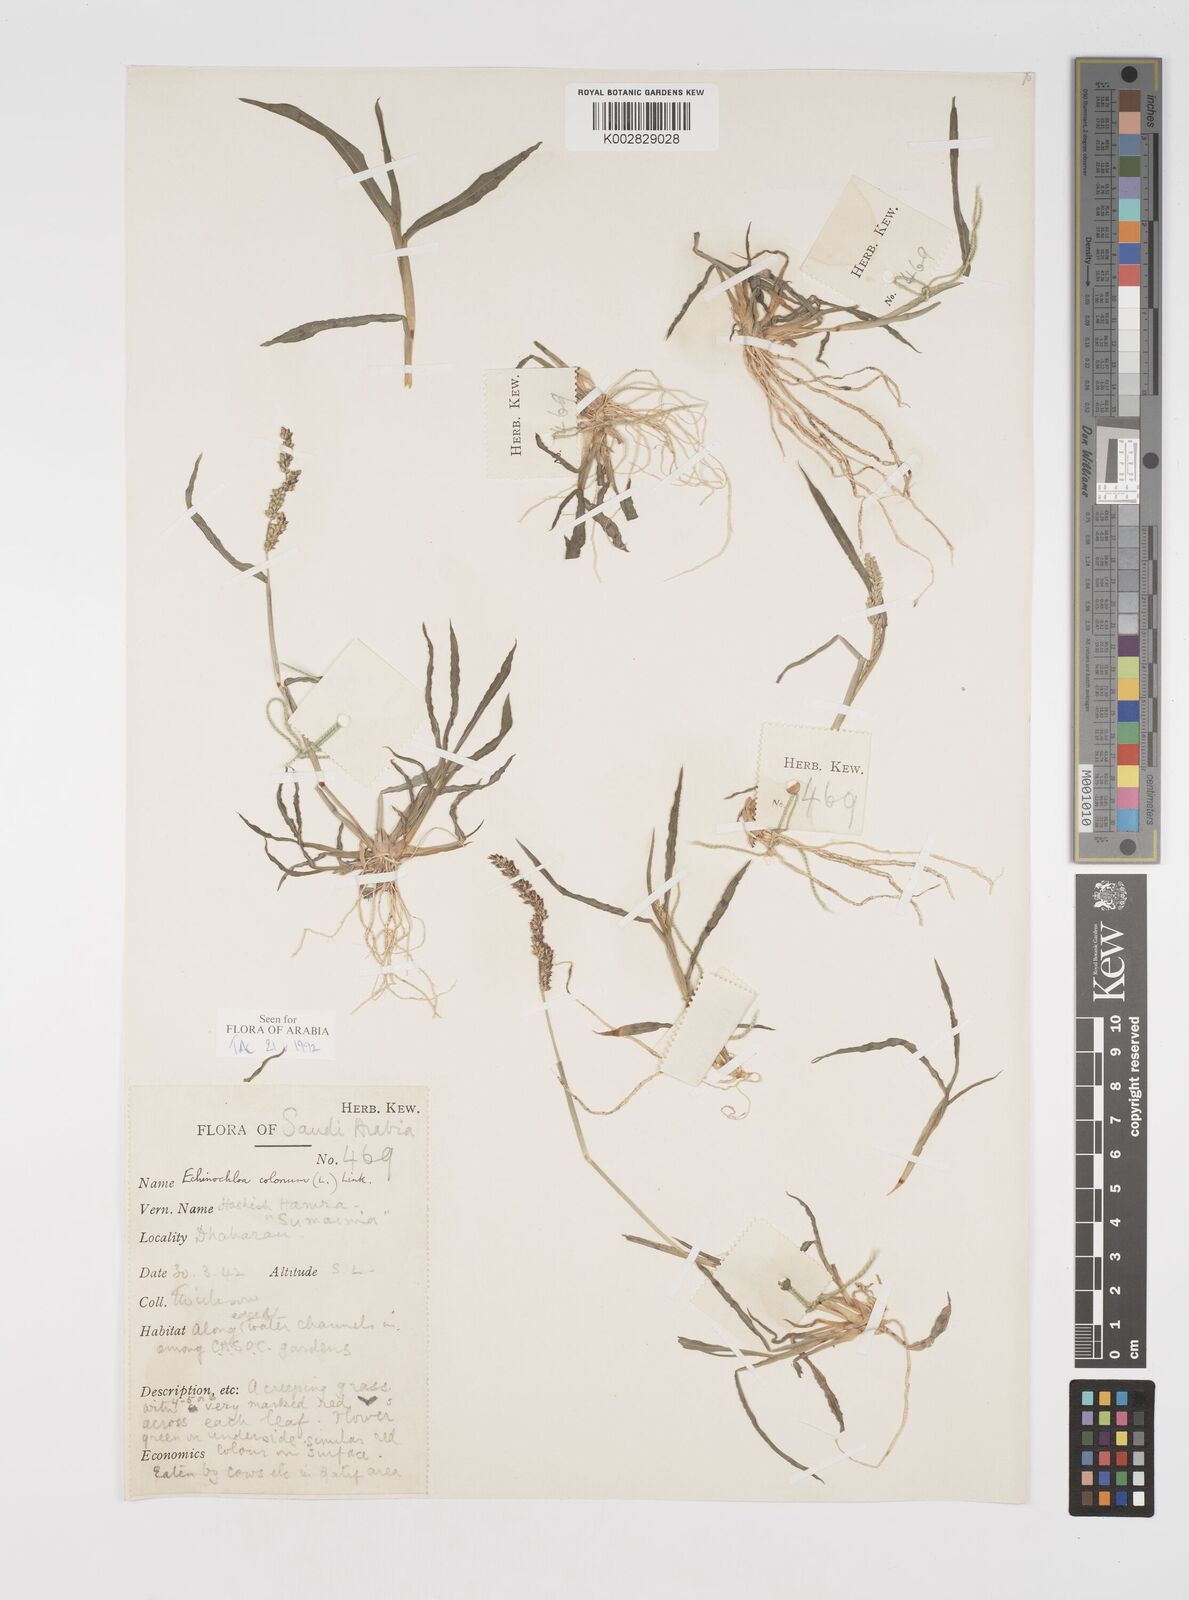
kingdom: Plantae
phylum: Tracheophyta
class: Liliopsida
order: Poales
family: Poaceae
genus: Echinochloa
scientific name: Echinochloa colonum
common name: Jungle rice
